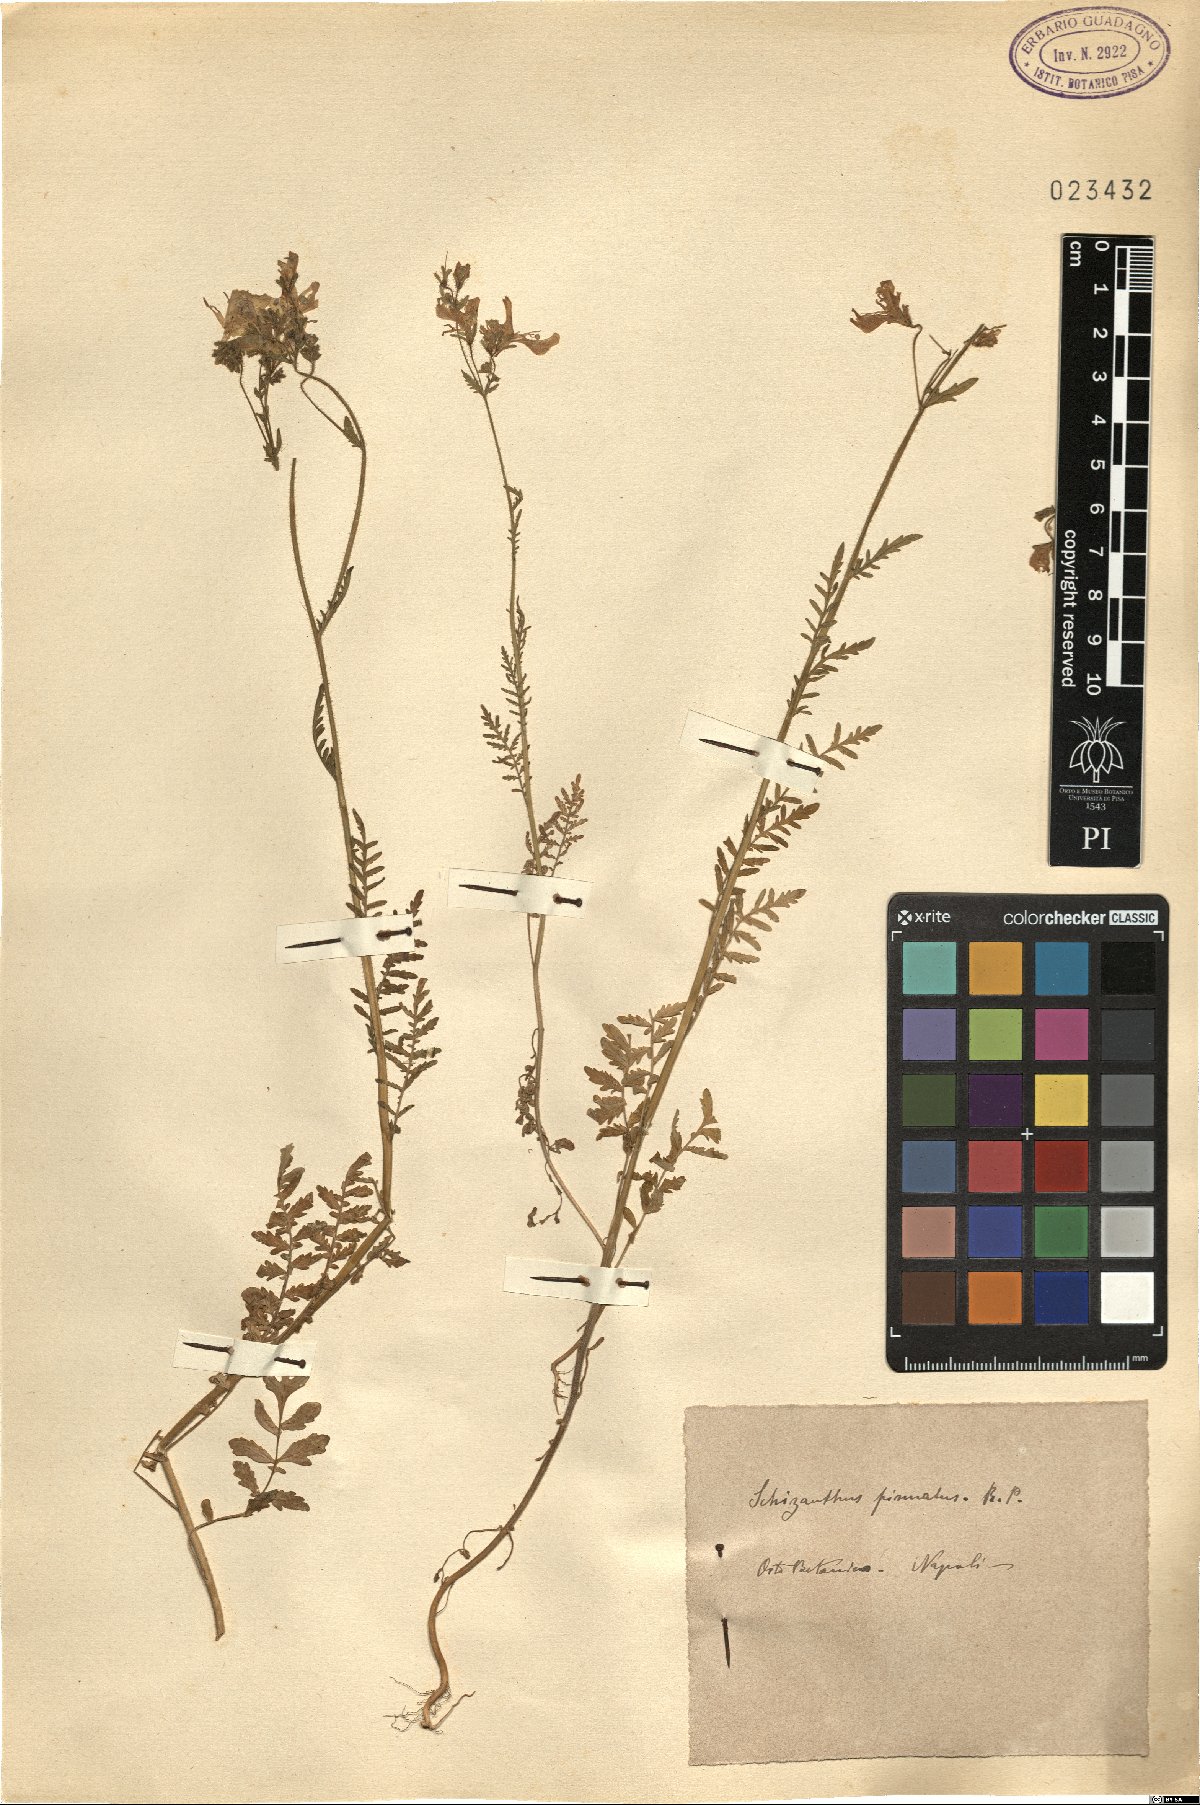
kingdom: Plantae
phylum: Tracheophyta
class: Magnoliopsida
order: Solanales
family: Solanaceae
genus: Schizanthus
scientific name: Schizanthus pinnatus
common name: Poor-man's-orchid
